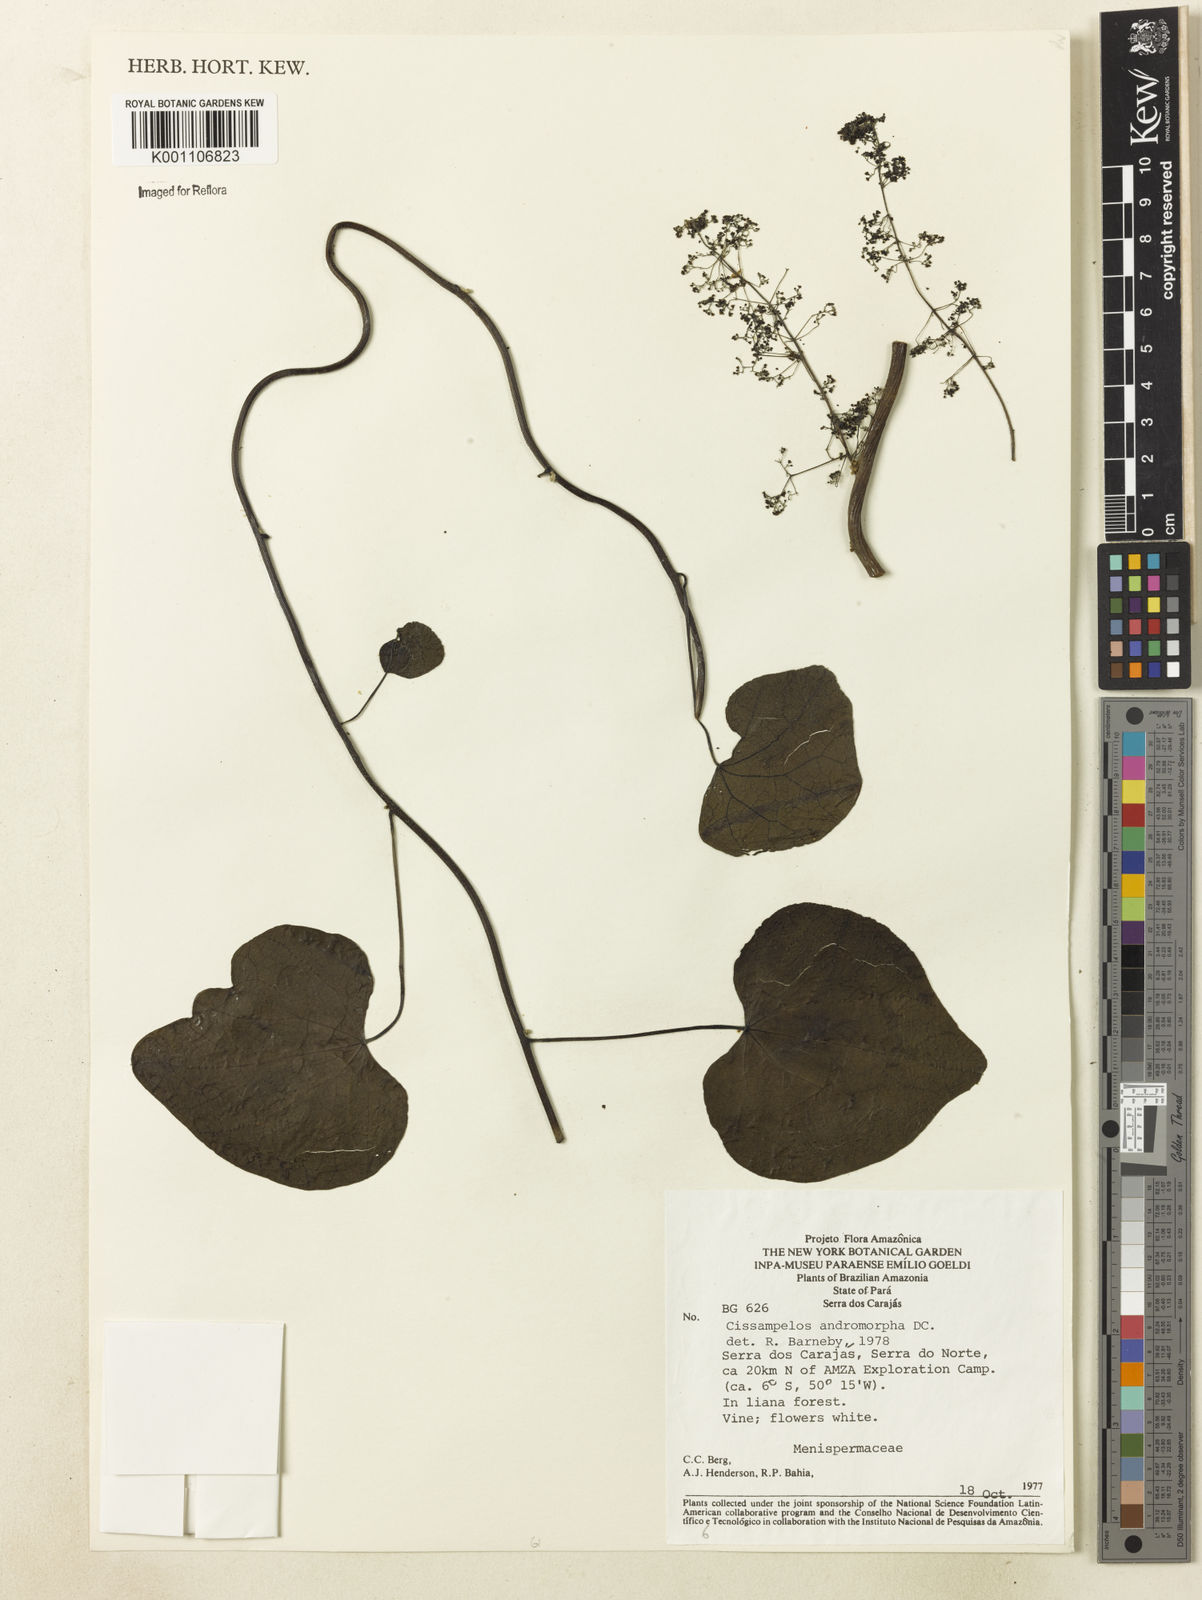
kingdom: Plantae
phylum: Tracheophyta
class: Magnoliopsida
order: Ranunculales
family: Menispermaceae
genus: Cissampelos
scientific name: Cissampelos andromorpha
